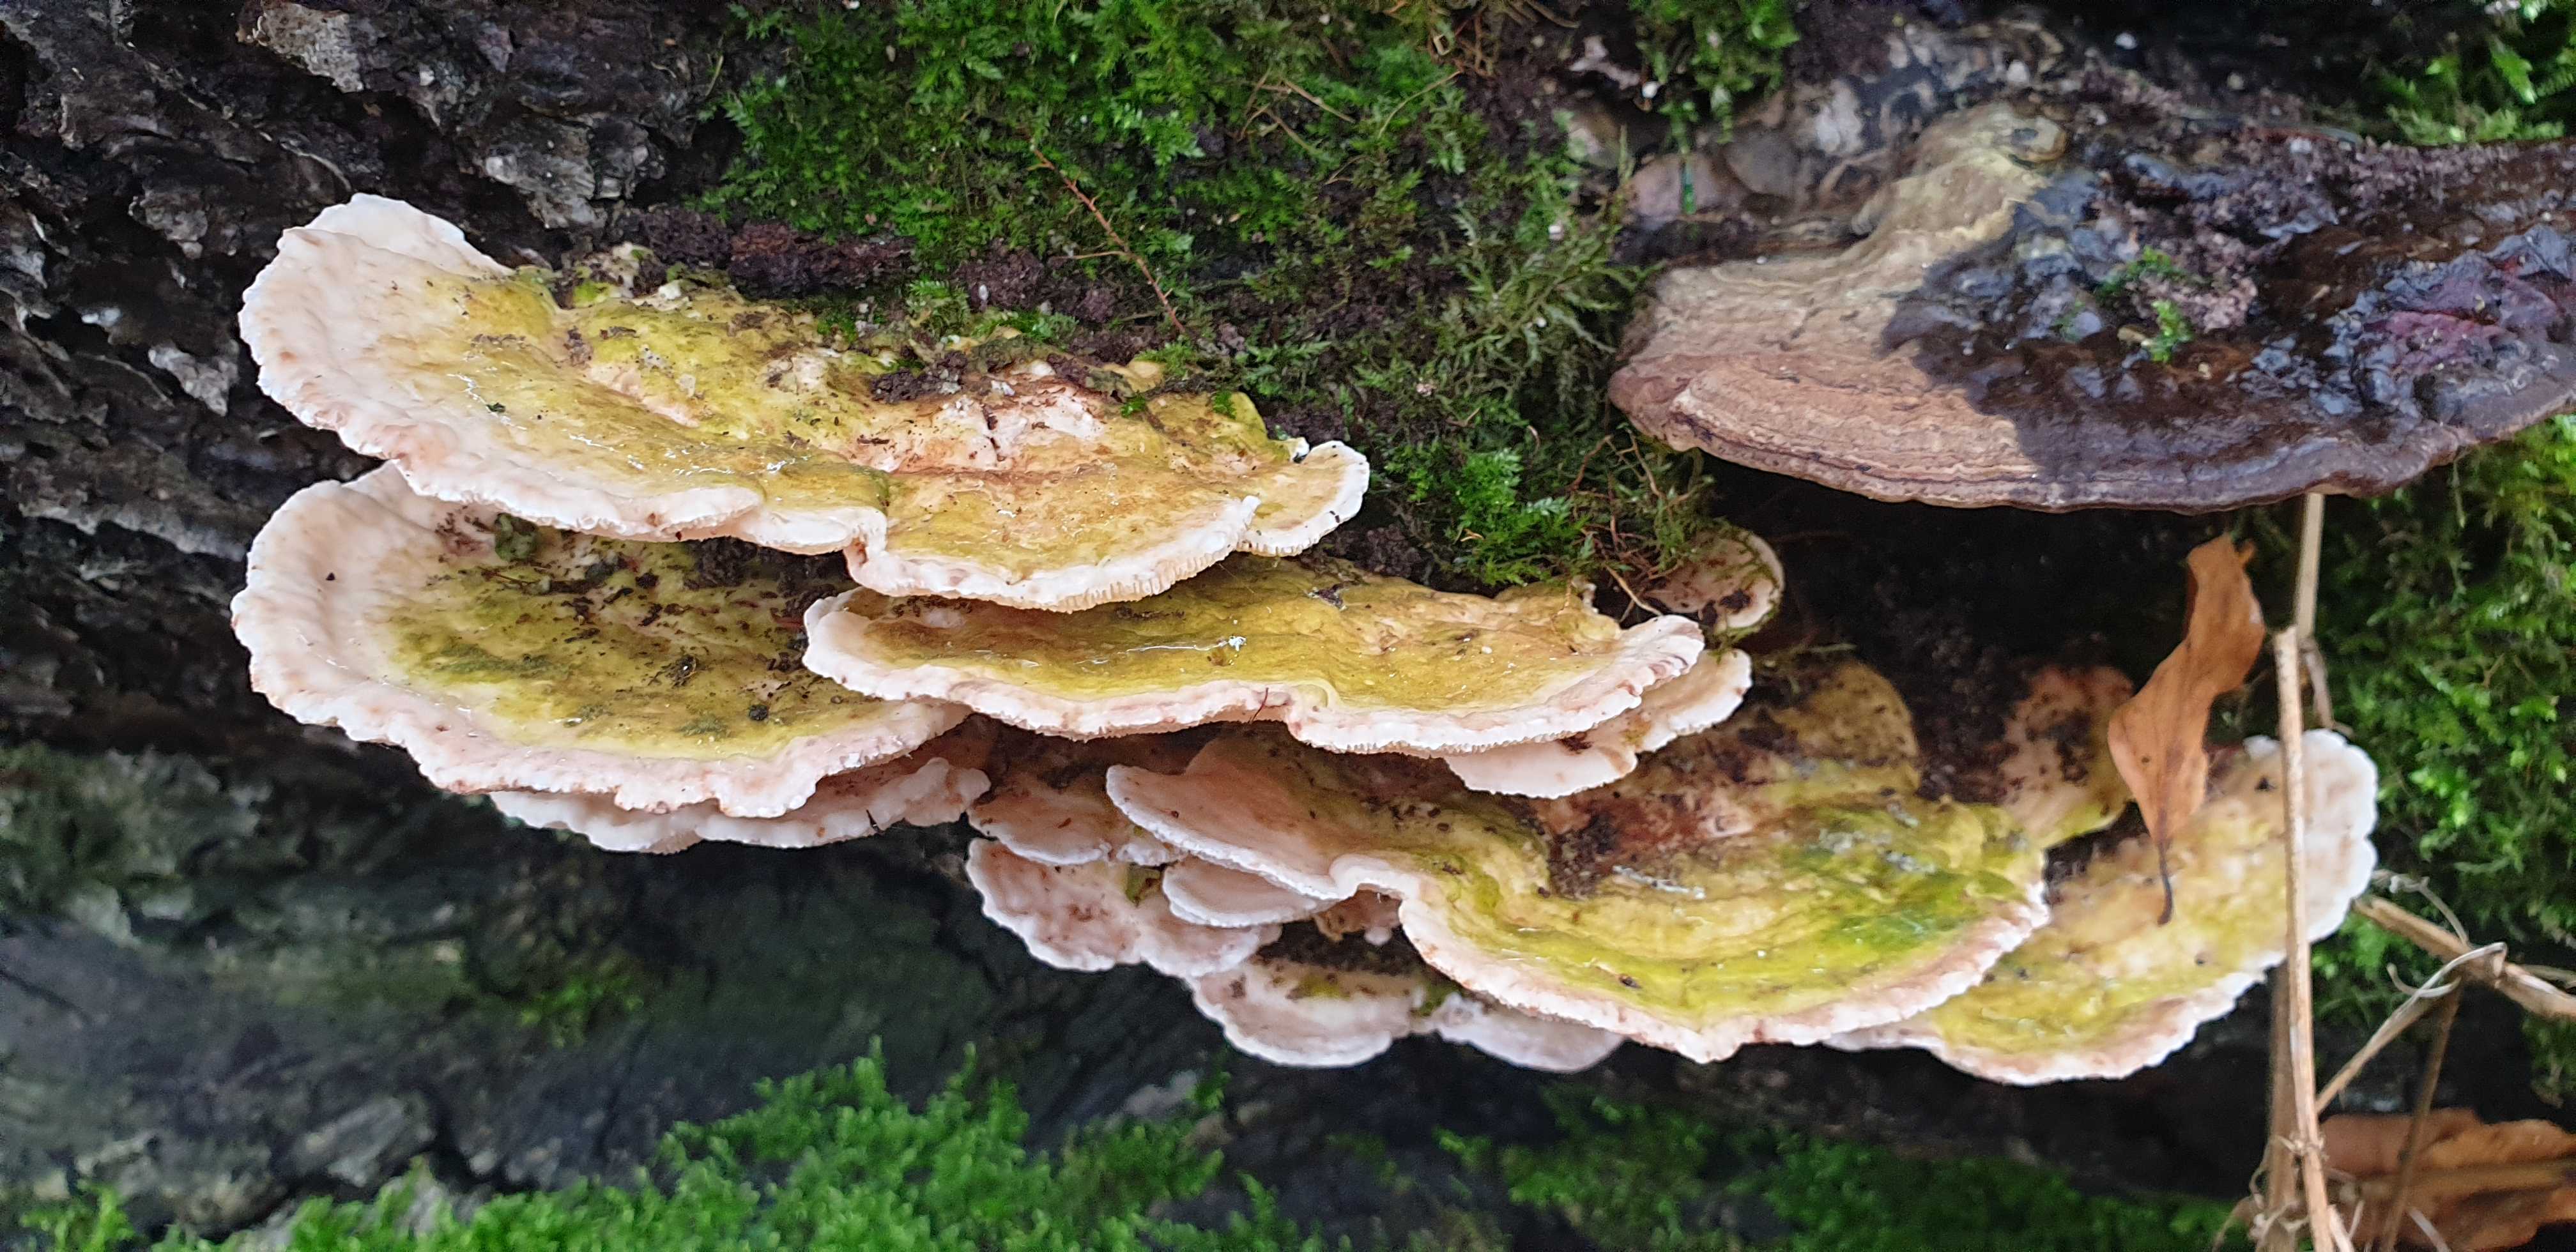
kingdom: Fungi
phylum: Basidiomycota
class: Agaricomycetes
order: Polyporales
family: Polyporaceae
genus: Trametes
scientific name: Trametes gibbosa
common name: puklet læderporesvamp
